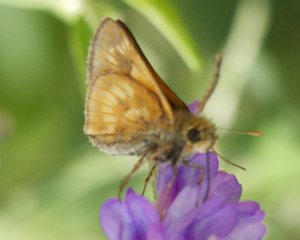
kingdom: Animalia
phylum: Arthropoda
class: Insecta
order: Lepidoptera
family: Hesperiidae
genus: Polites
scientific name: Polites
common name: Long Dash Skipper
